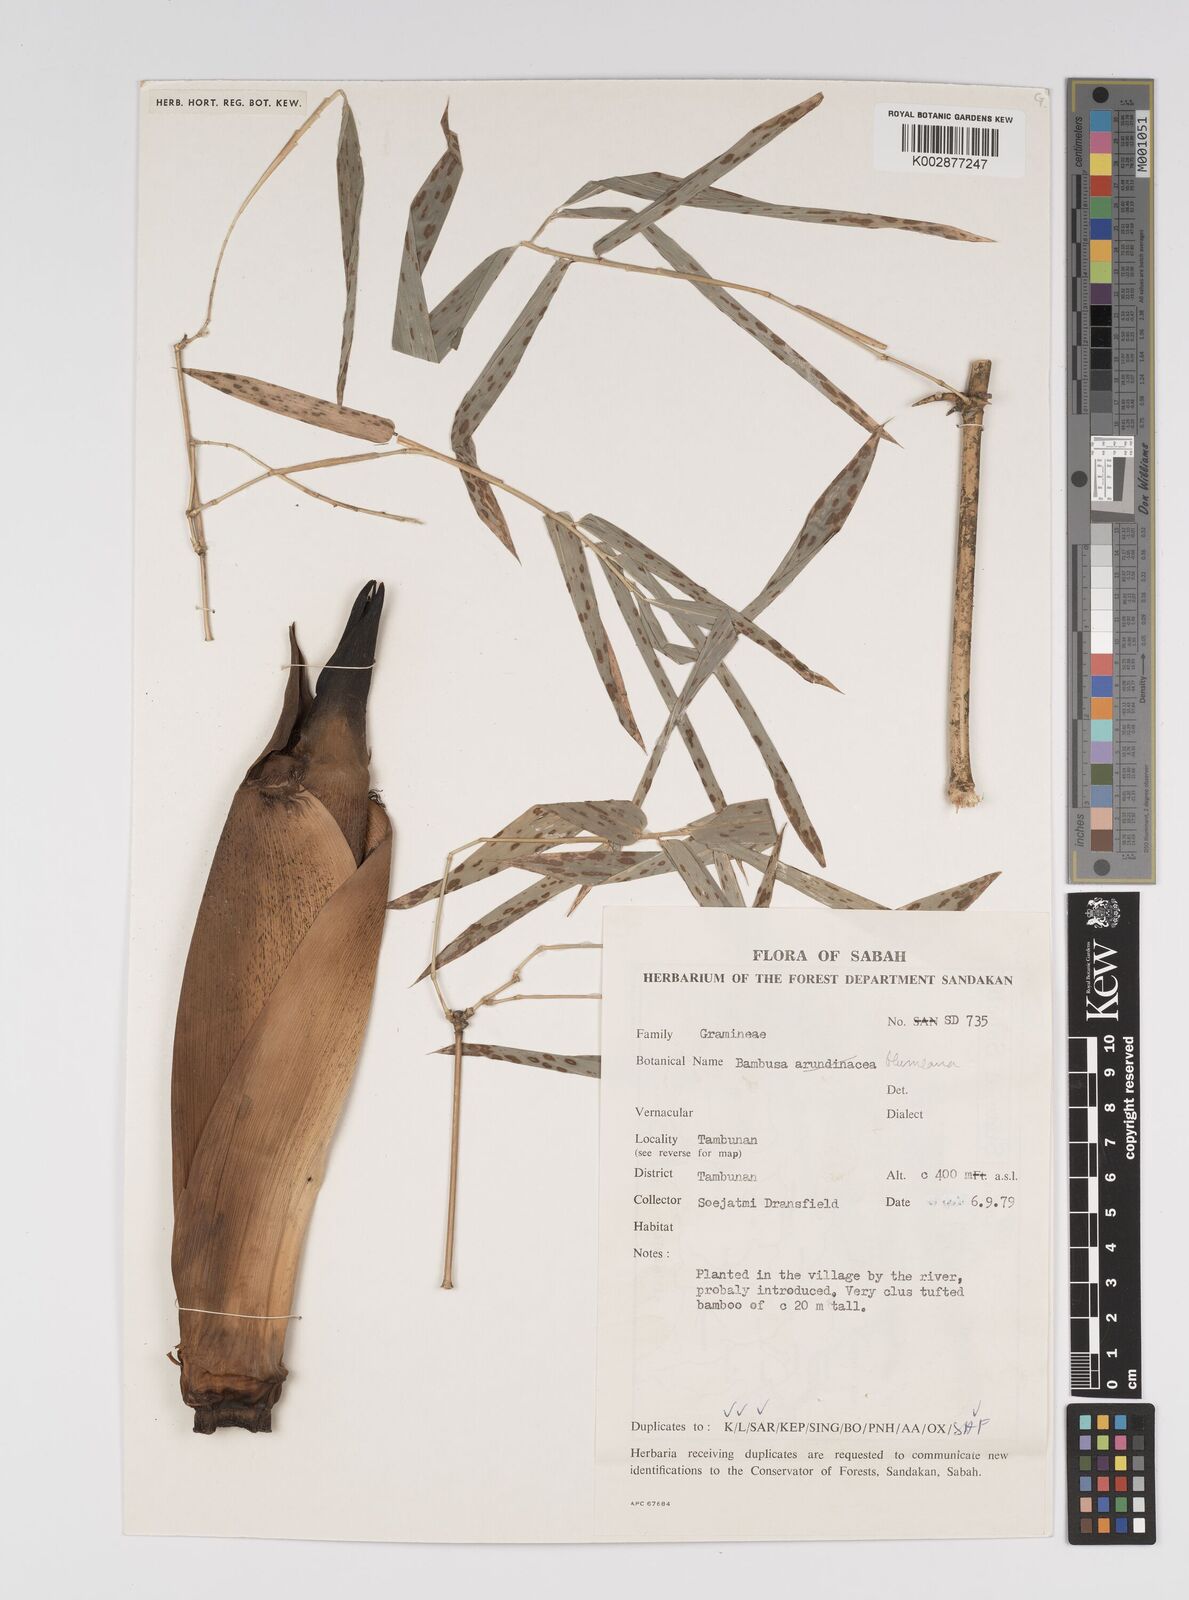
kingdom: Plantae
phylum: Tracheophyta
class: Liliopsida
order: Poales
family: Poaceae
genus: Bambusa
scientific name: Bambusa spinosa
